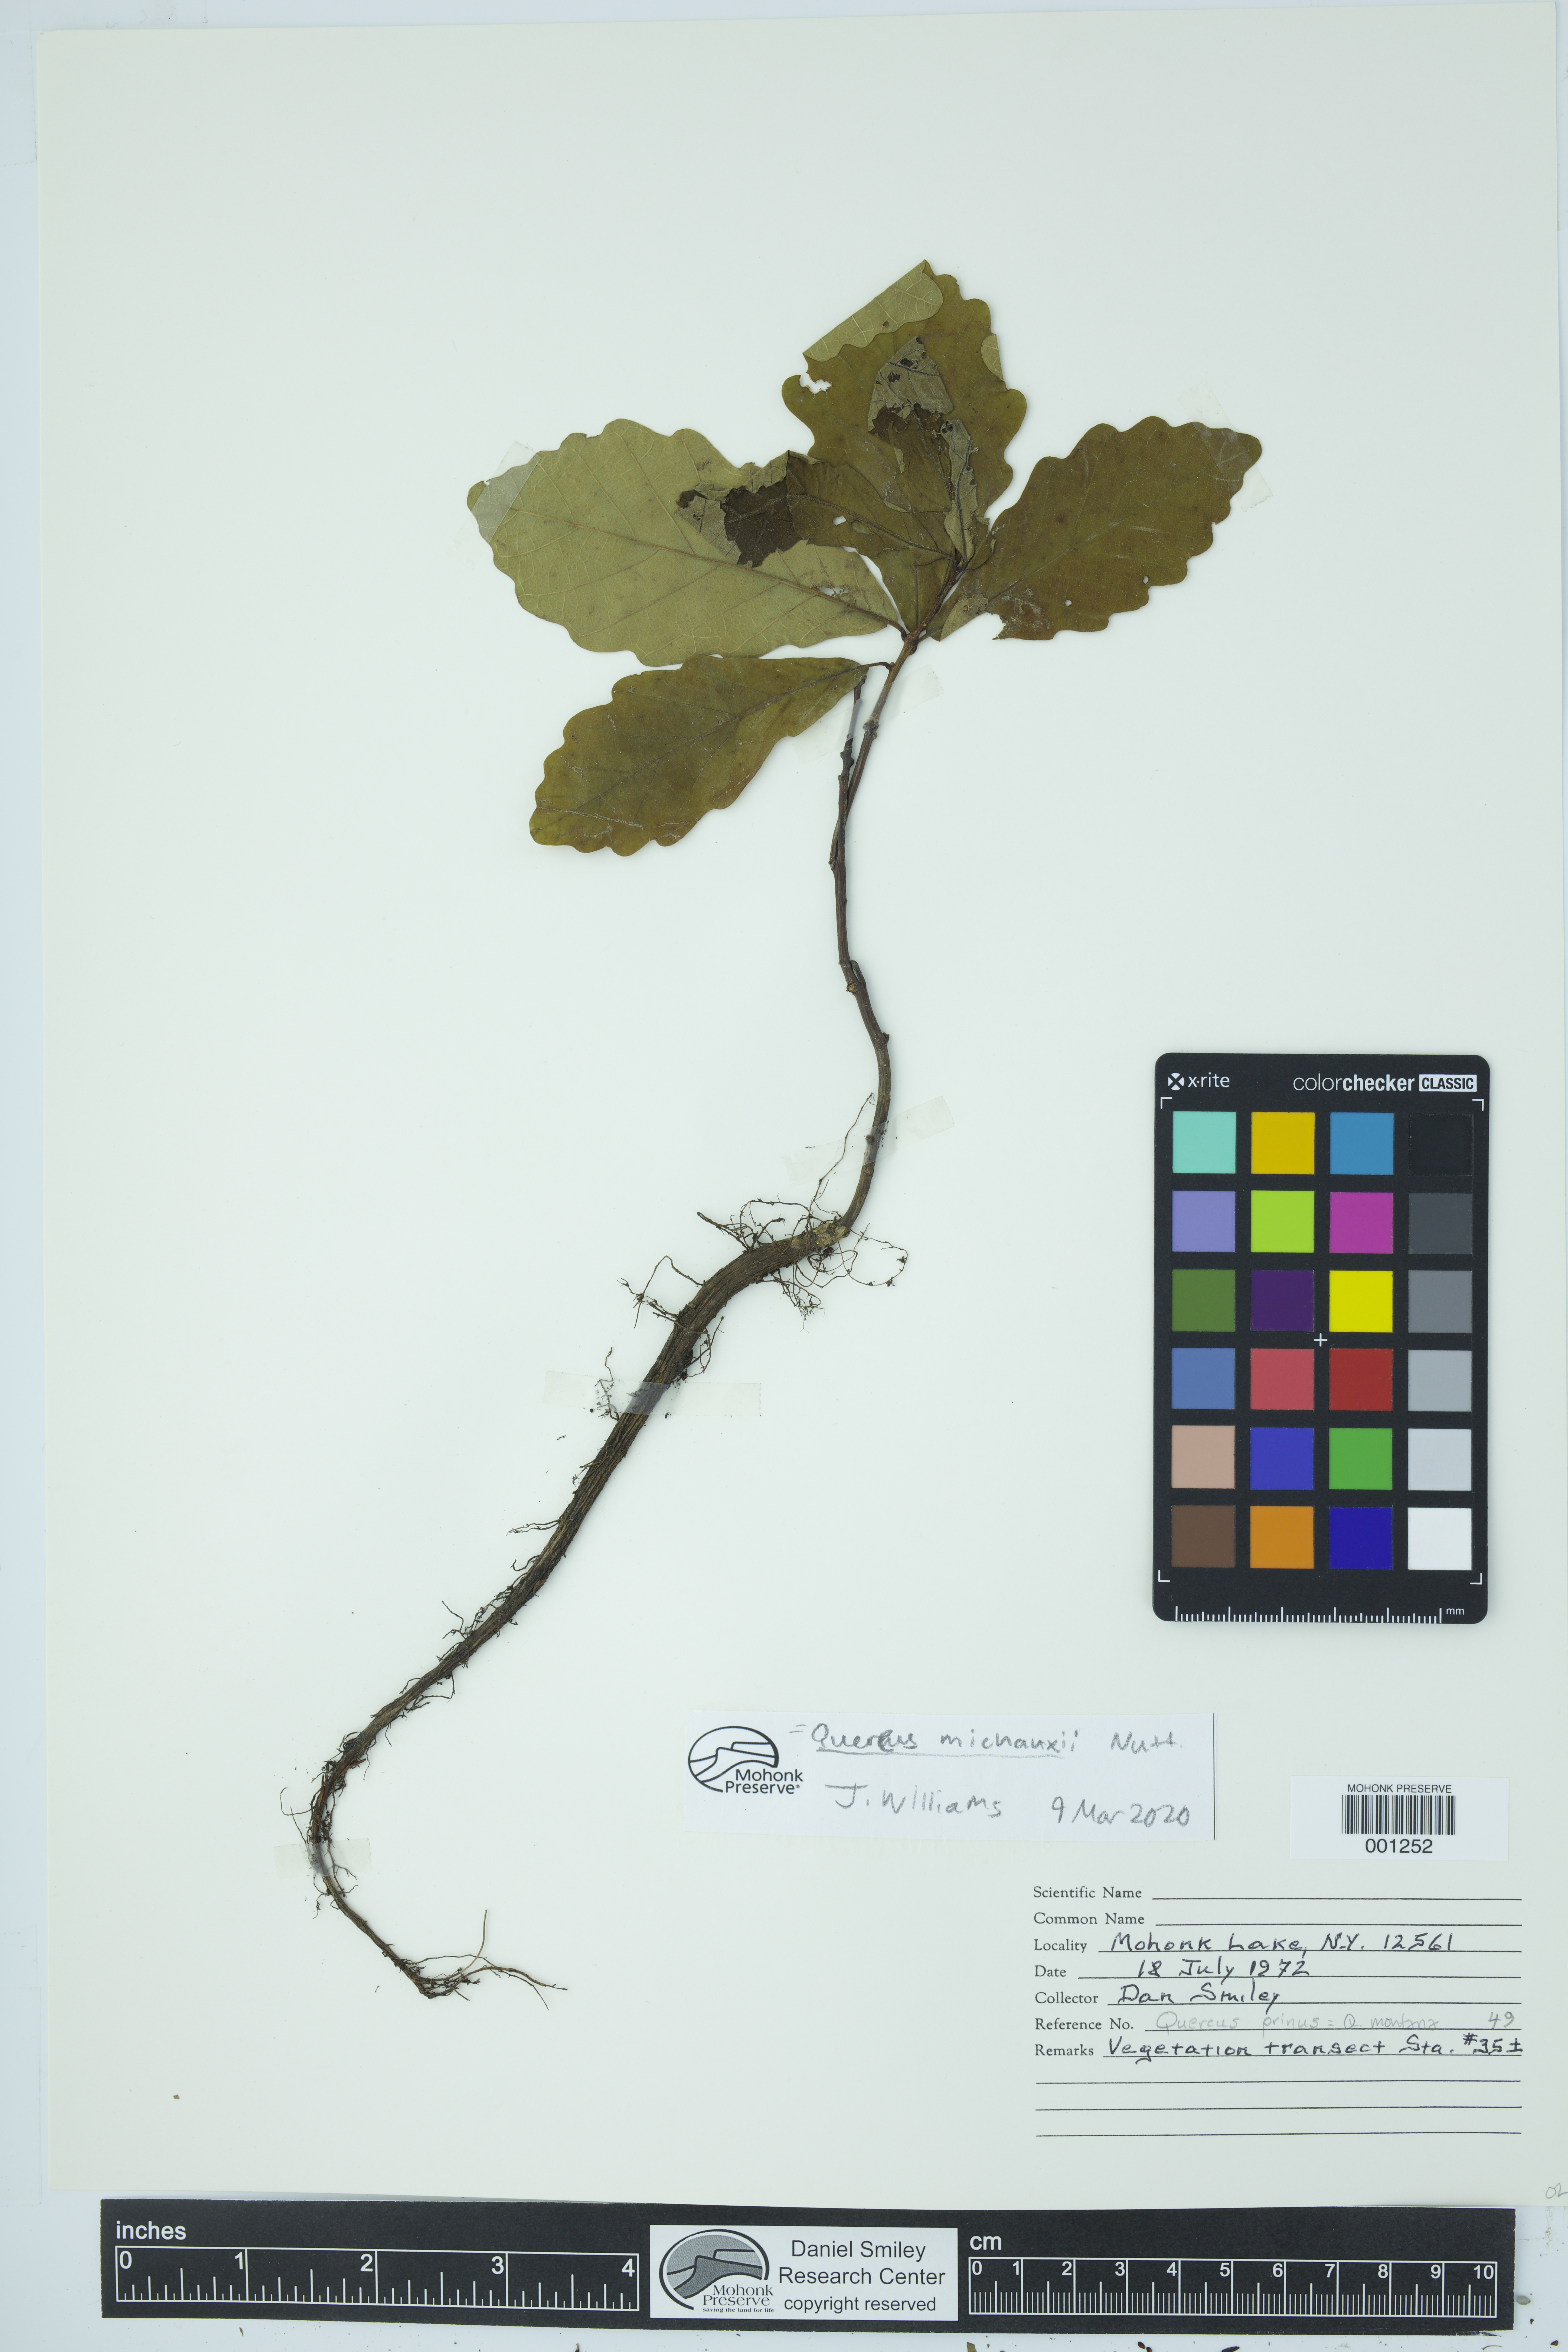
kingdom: Plantae
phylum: Tracheophyta
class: Magnoliopsida
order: Fagales
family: Fagaceae
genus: Quercus
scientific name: Quercus michauxii
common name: Swamp chestnut oak
